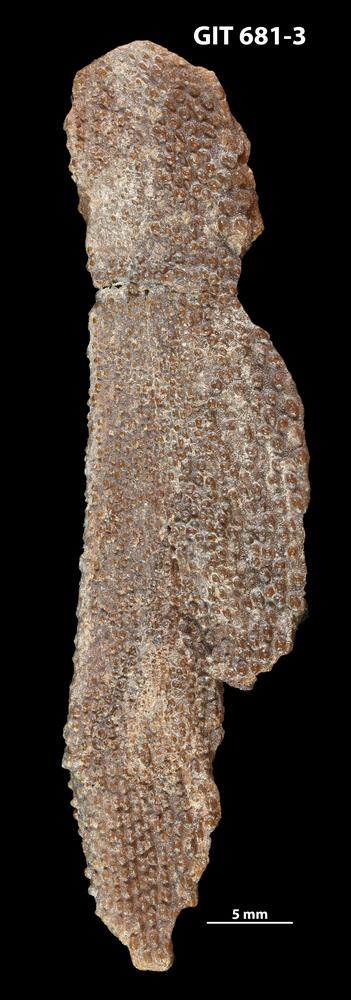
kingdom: Animalia
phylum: Chordata
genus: Hybosteus
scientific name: Hybosteus
